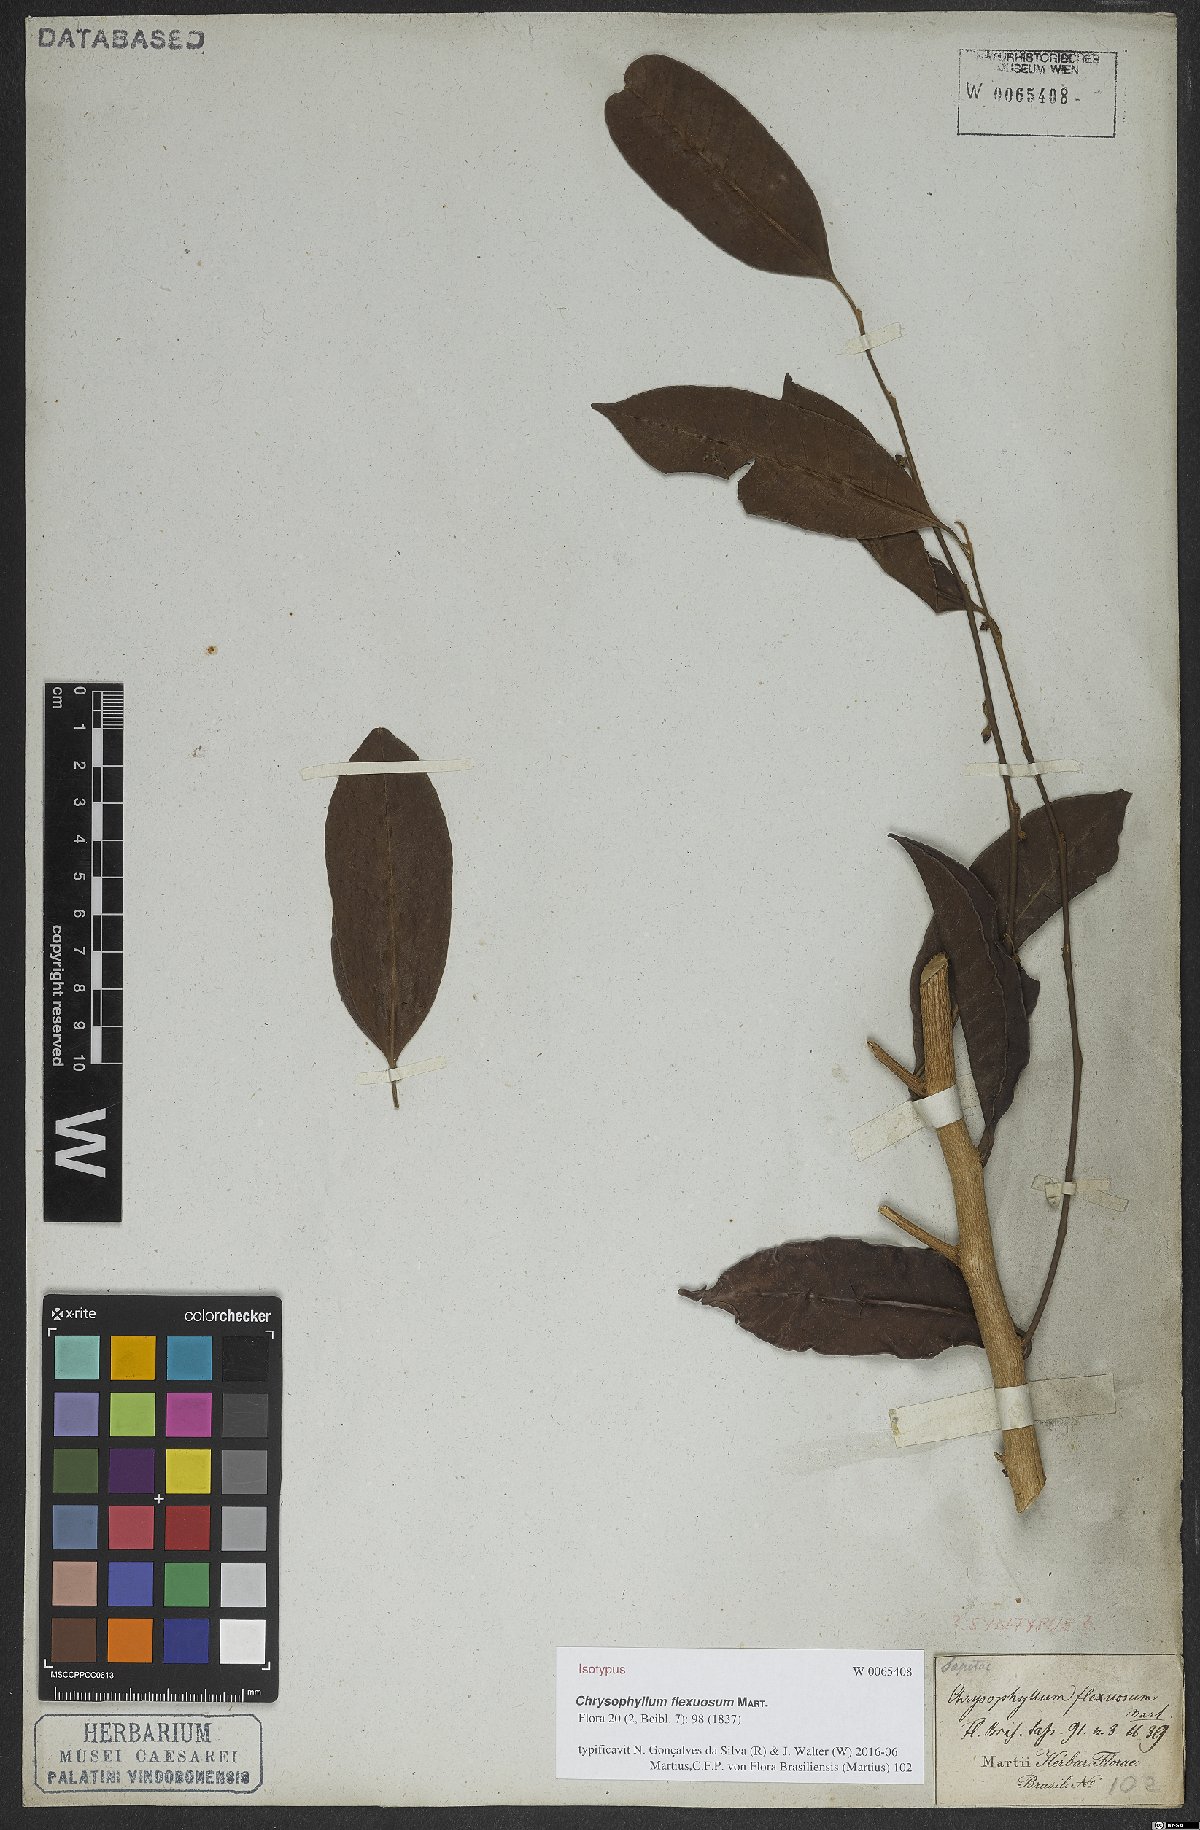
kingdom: Plantae
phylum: Tracheophyta
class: Magnoliopsida
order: Ericales
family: Sapotaceae
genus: Chrysophyllum
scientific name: Chrysophyllum flexuosum
